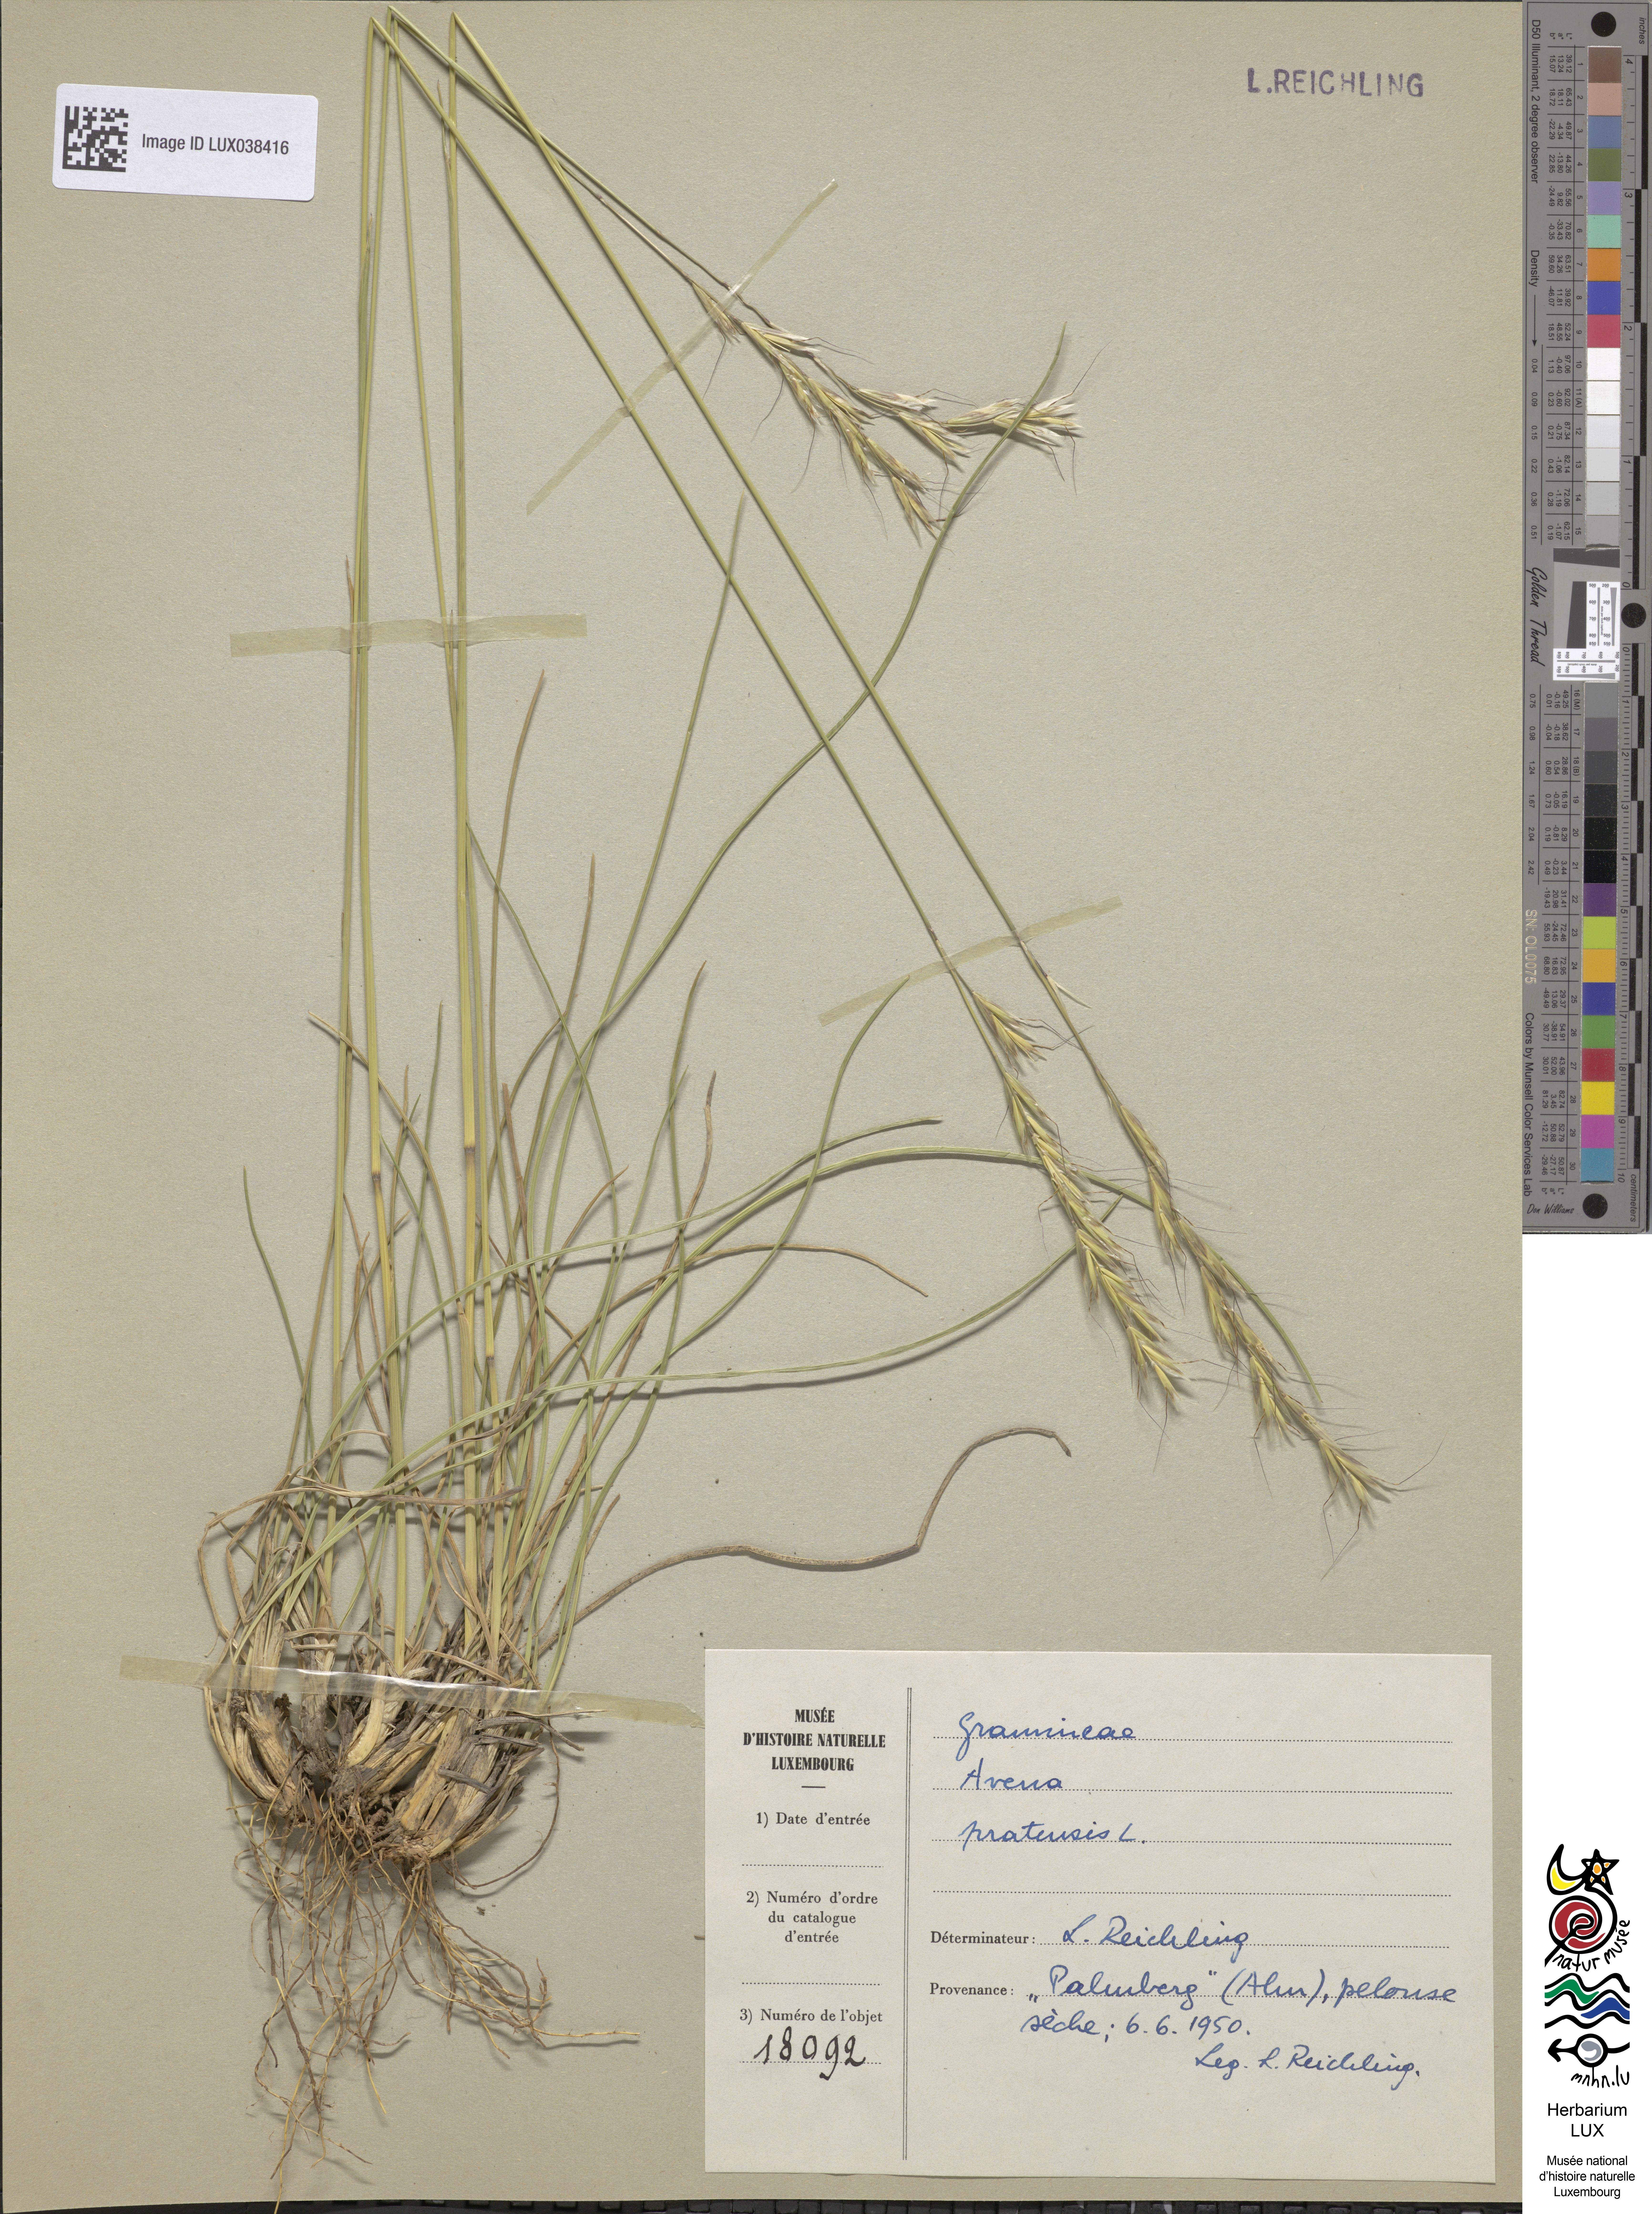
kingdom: Plantae
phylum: Tracheophyta
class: Liliopsida
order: Poales
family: Poaceae
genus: Helictochloa
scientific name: Helictochloa pratensis
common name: Meadow oat grass
